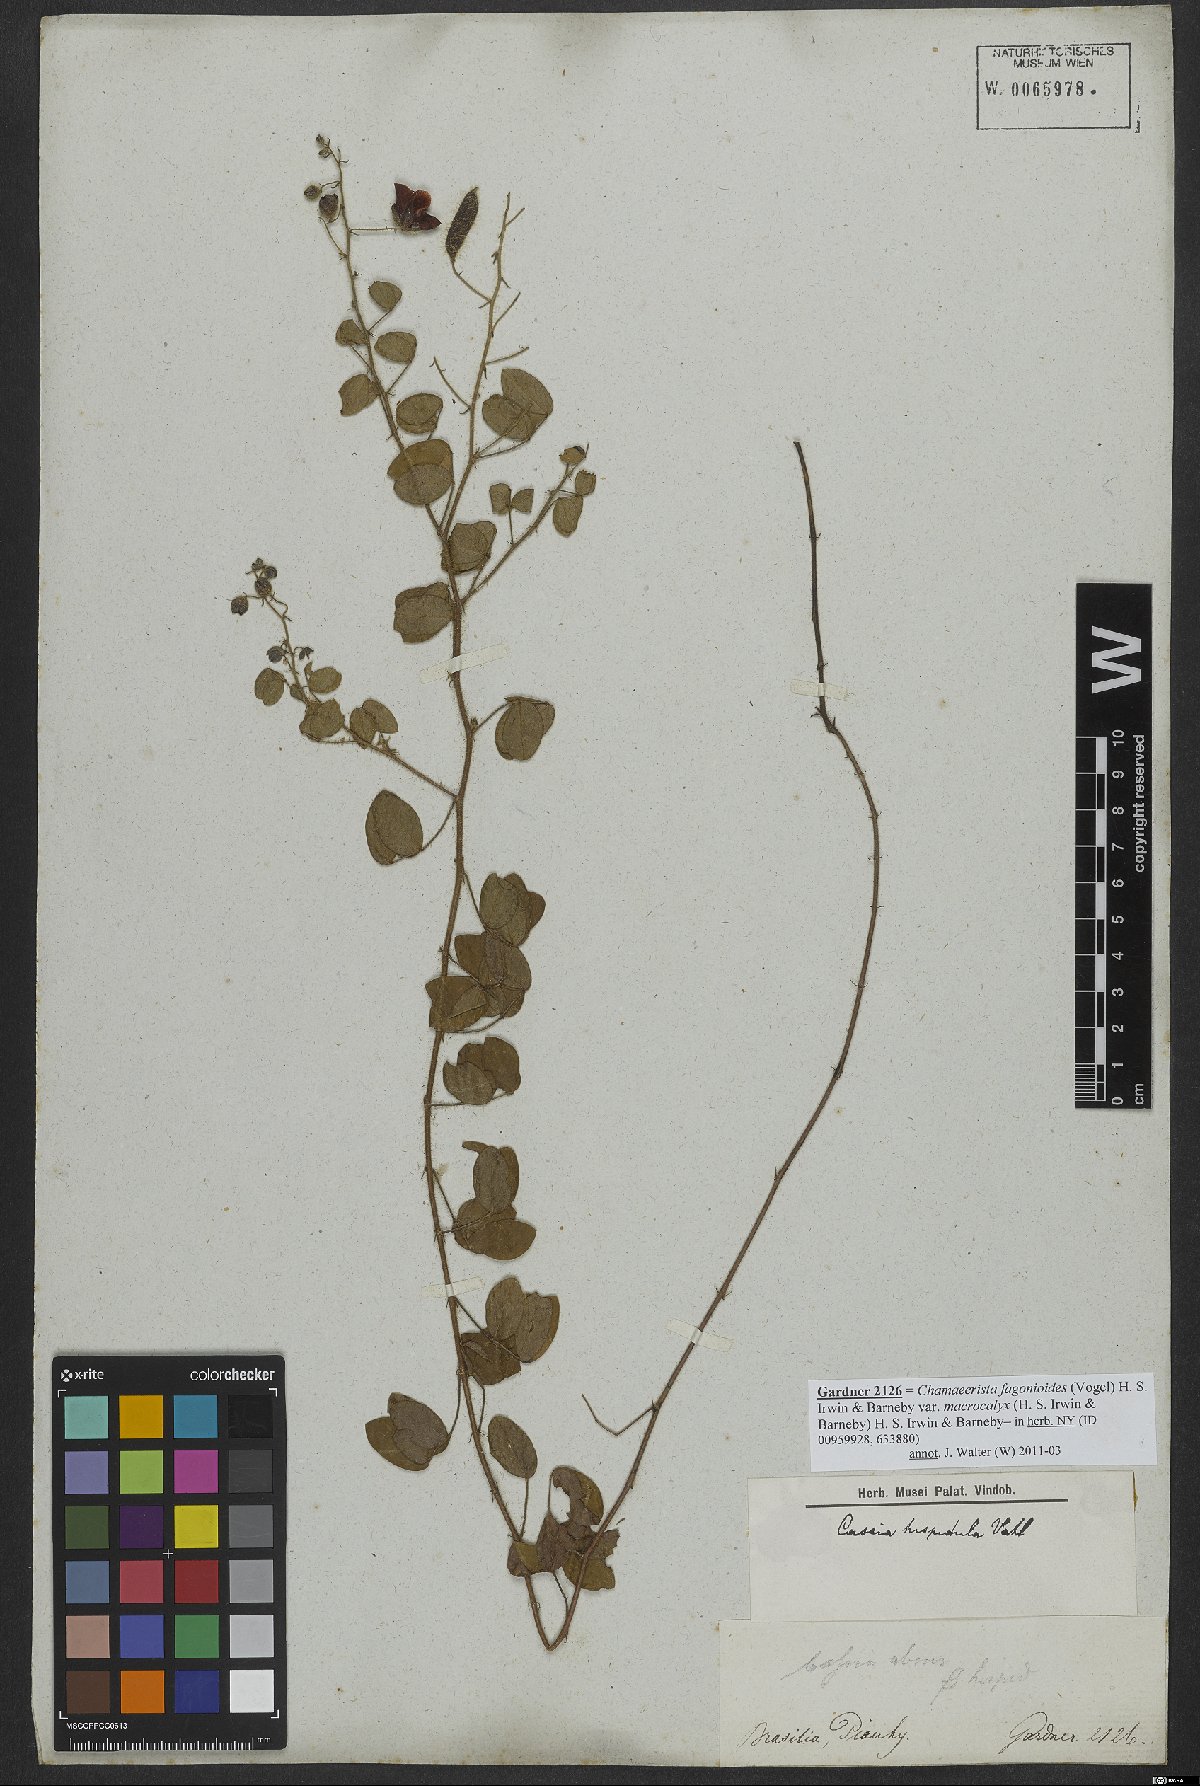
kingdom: Plantae
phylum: Tracheophyta
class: Magnoliopsida
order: Fabales
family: Fabaceae
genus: Chamaecrista
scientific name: Chamaecrista hispidula
